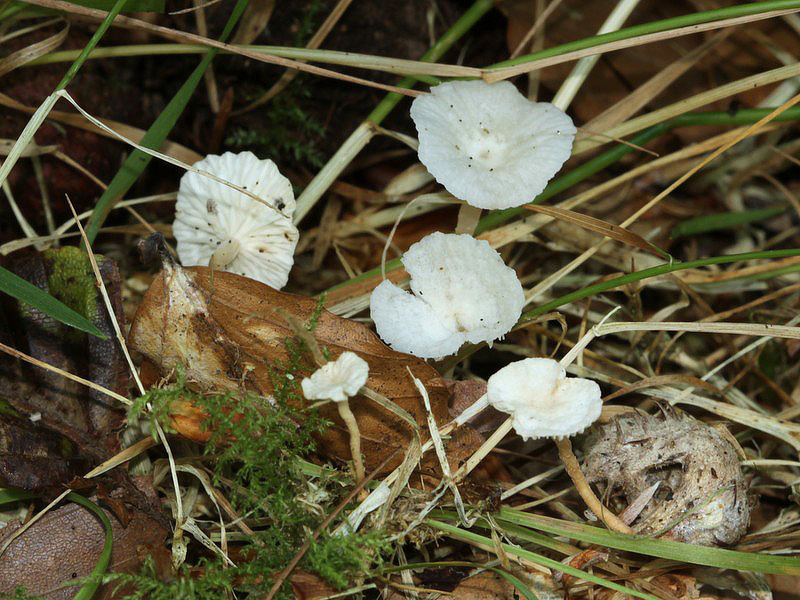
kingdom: Fungi
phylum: Basidiomycota
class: Agaricomycetes
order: Agaricales
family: Omphalotaceae
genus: Collybiopsis
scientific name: Collybiopsis vaillantii
